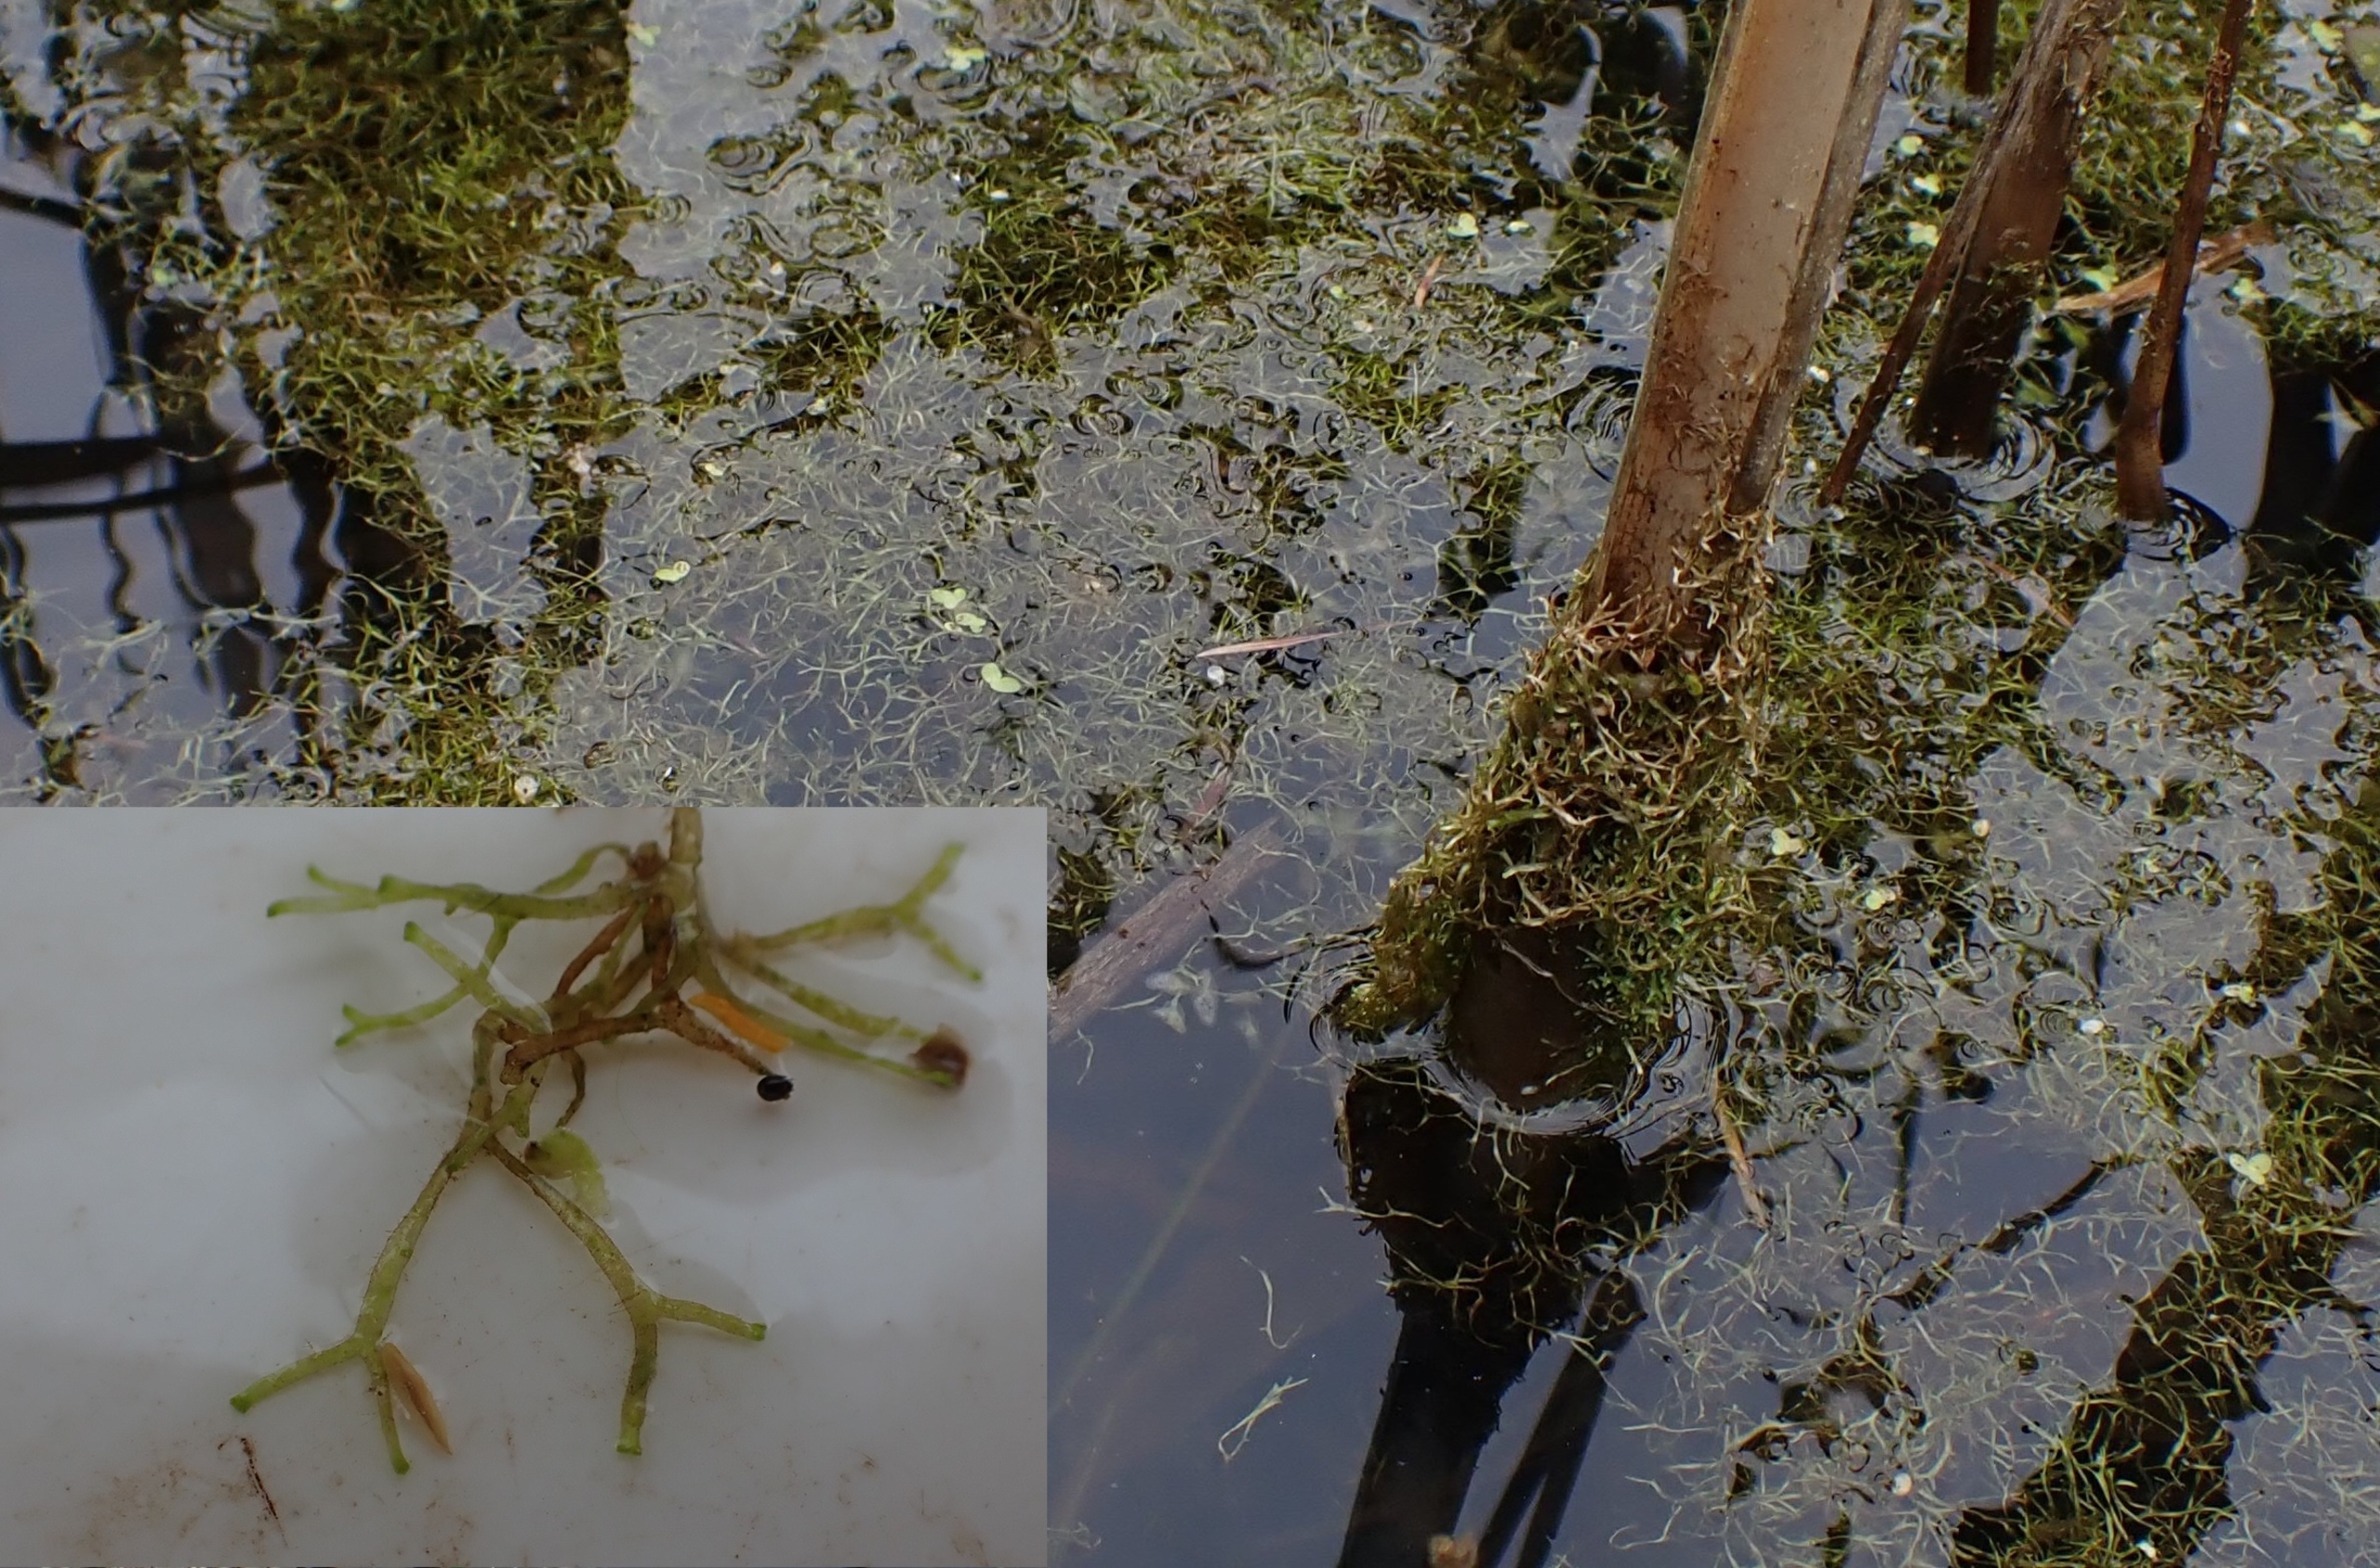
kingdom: Plantae
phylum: Marchantiophyta
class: Marchantiopsida
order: Marchantiales
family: Ricciaceae
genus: Riccia
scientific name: Riccia fluitans
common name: Svømmende stjerneløv
